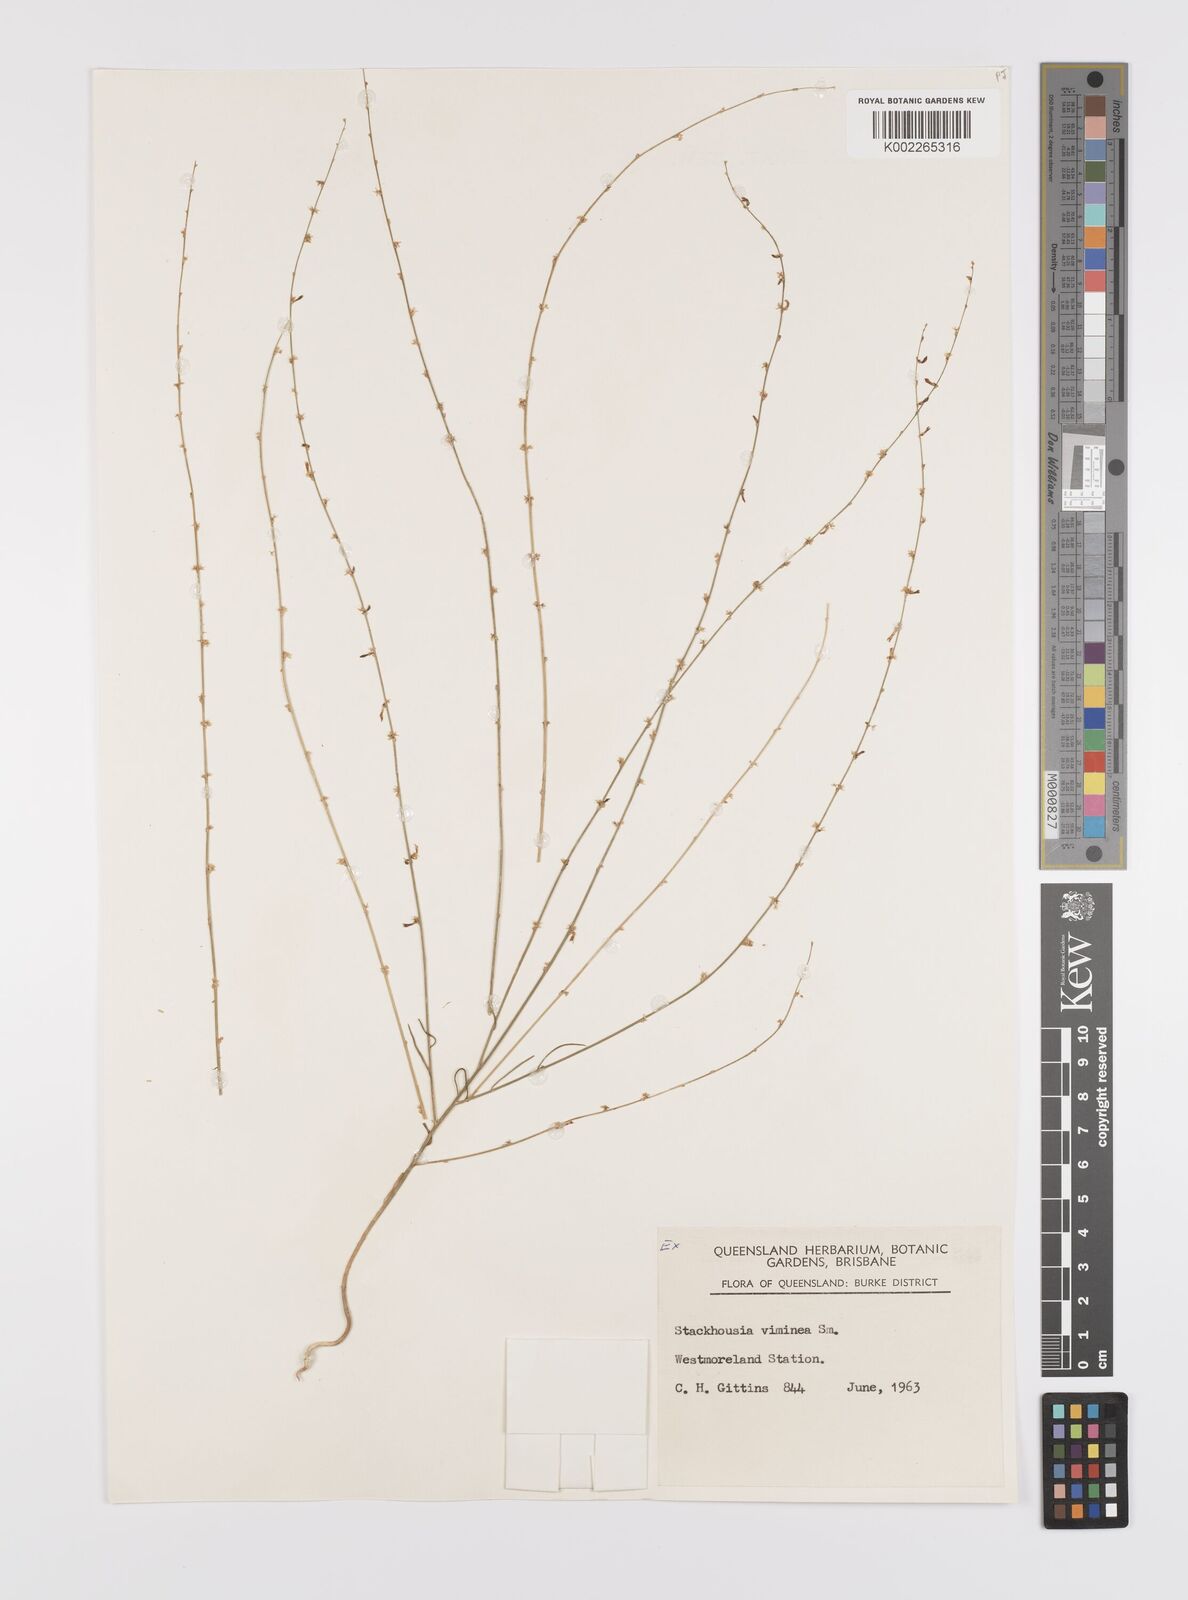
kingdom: Plantae
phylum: Tracheophyta
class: Magnoliopsida
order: Celastrales
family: Celastraceae
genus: Stackhousia
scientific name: Stackhousia viminea
